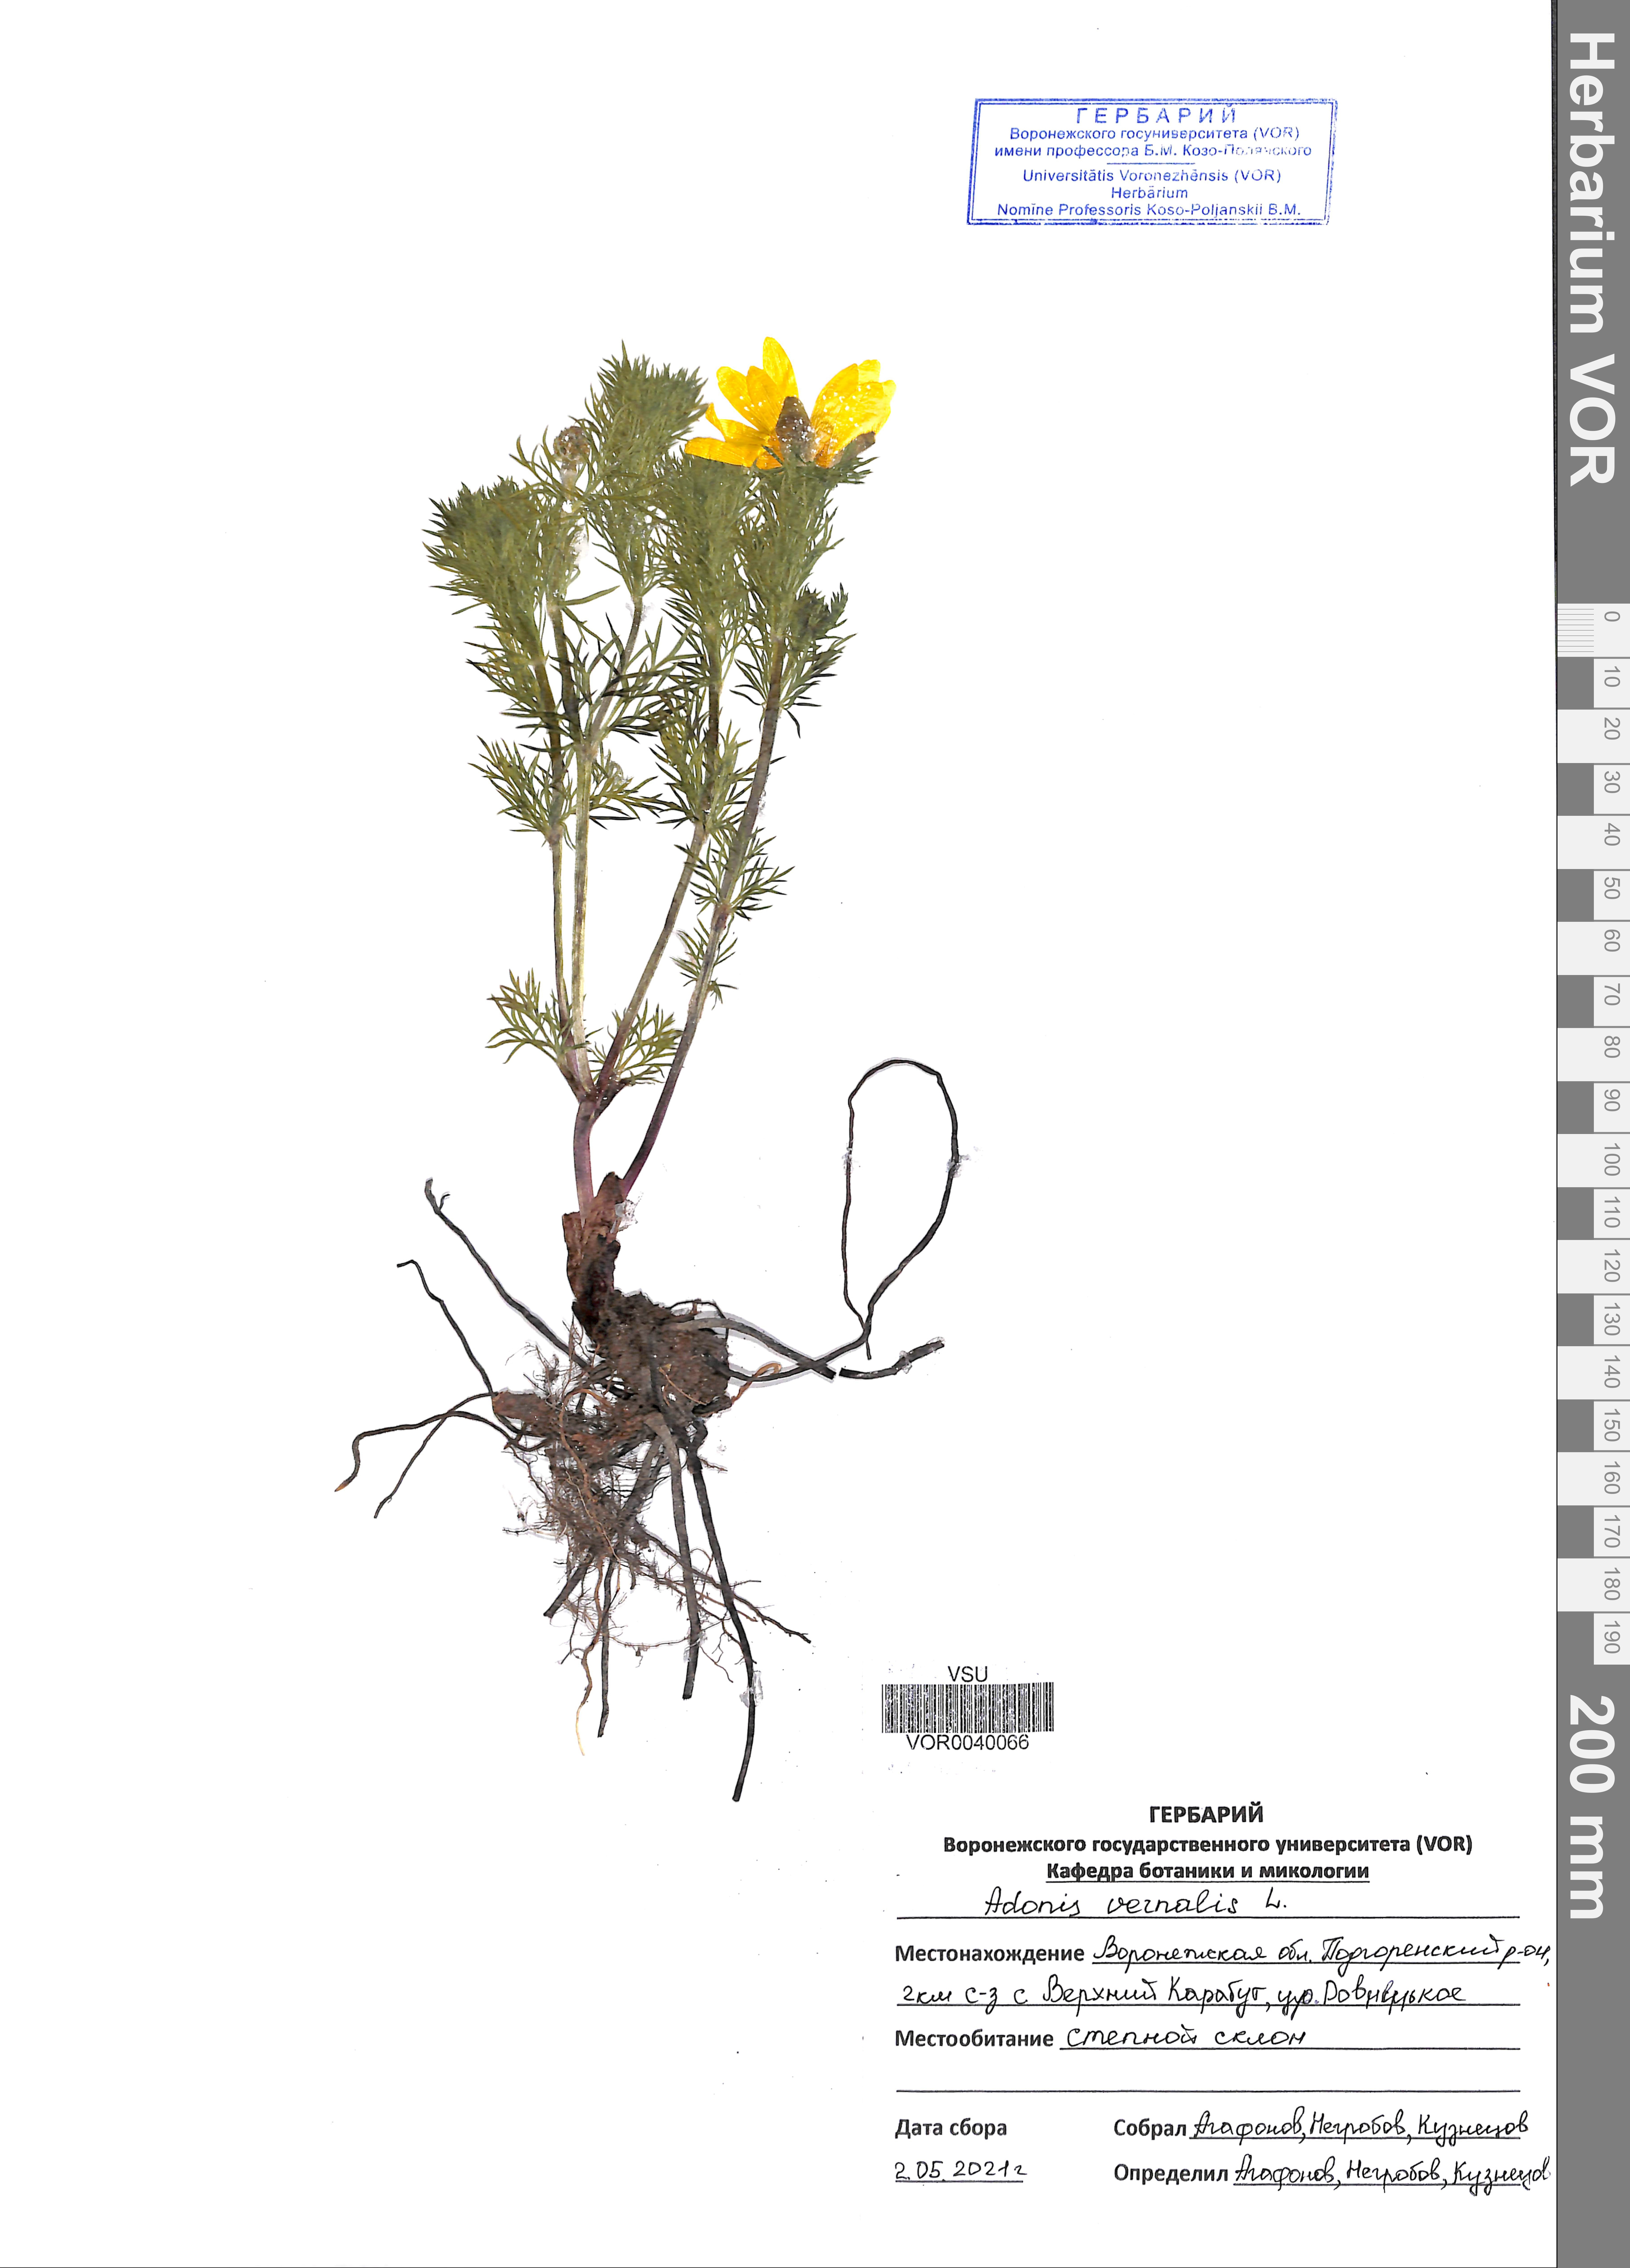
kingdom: Plantae
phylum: Tracheophyta
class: Magnoliopsida
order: Ranunculales
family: Ranunculaceae
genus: Adonis
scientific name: Adonis vernalis
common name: Yellow pheasants-eye
